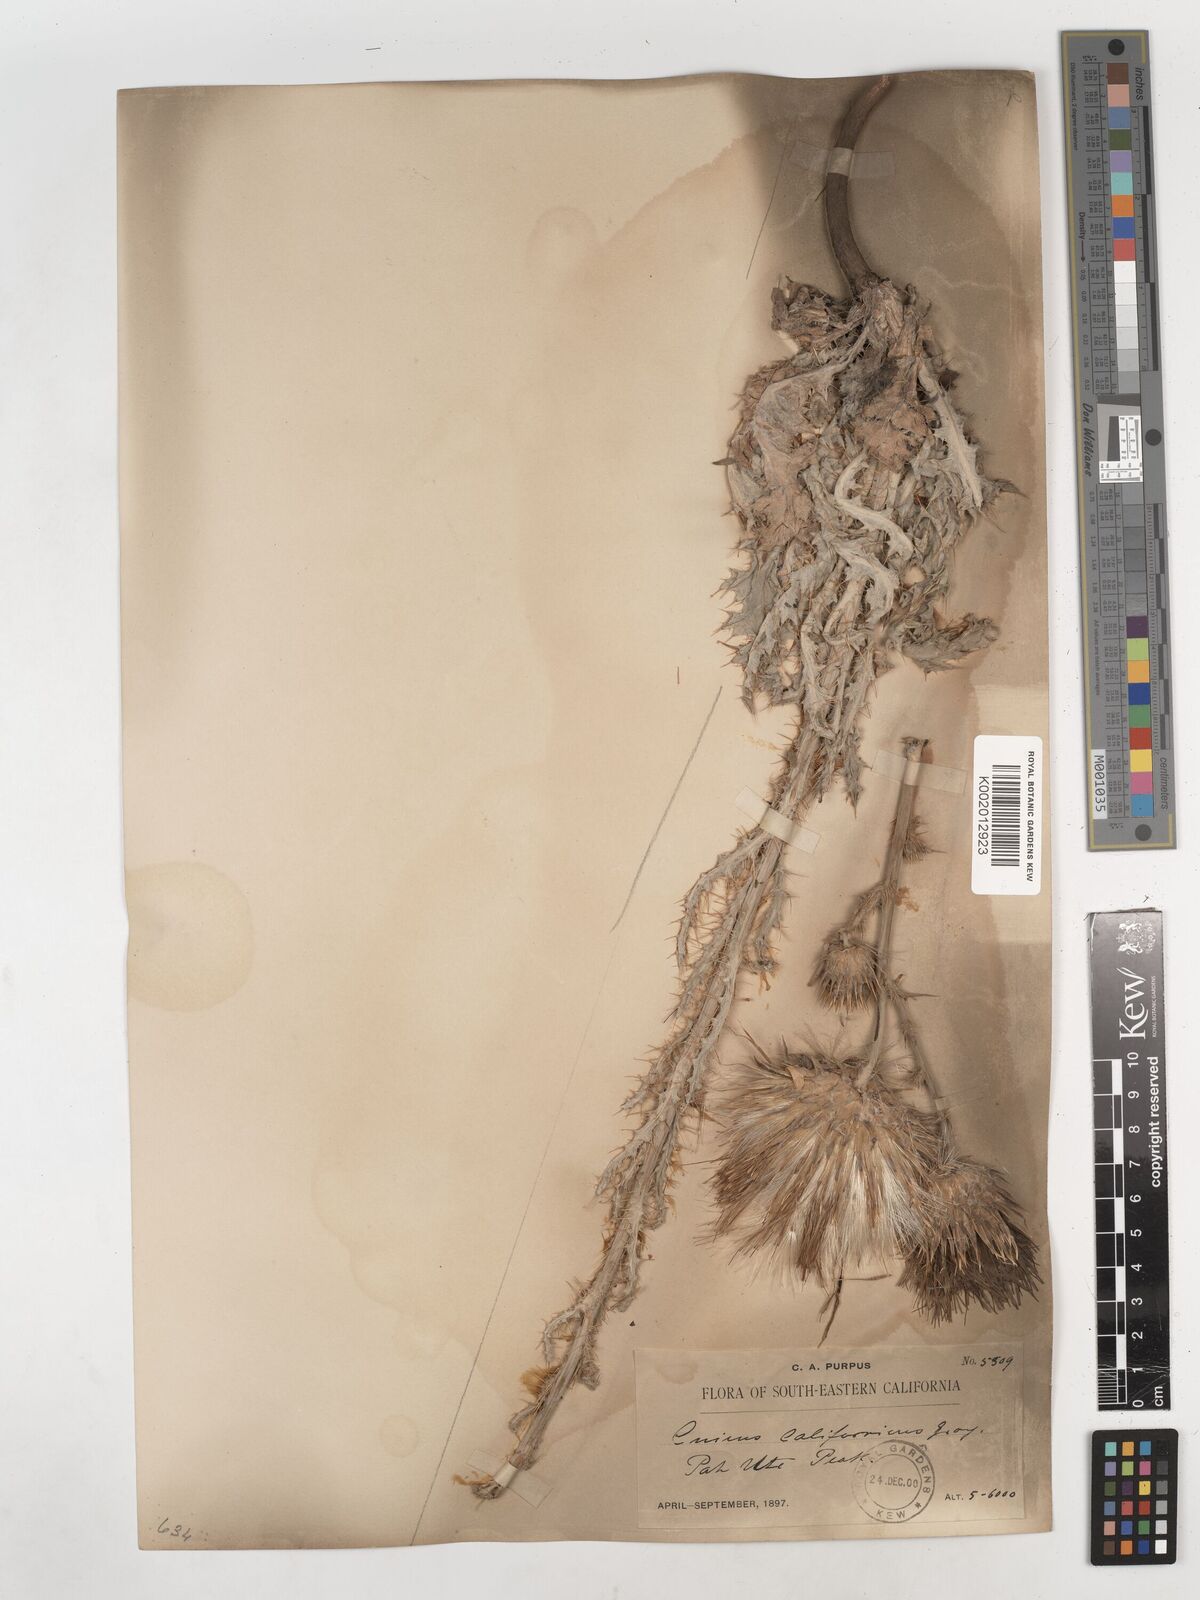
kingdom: Plantae
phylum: Tracheophyta
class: Magnoliopsida
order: Asterales
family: Asteraceae
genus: Cirsium
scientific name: Cirsium occidentale
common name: Western thistle
